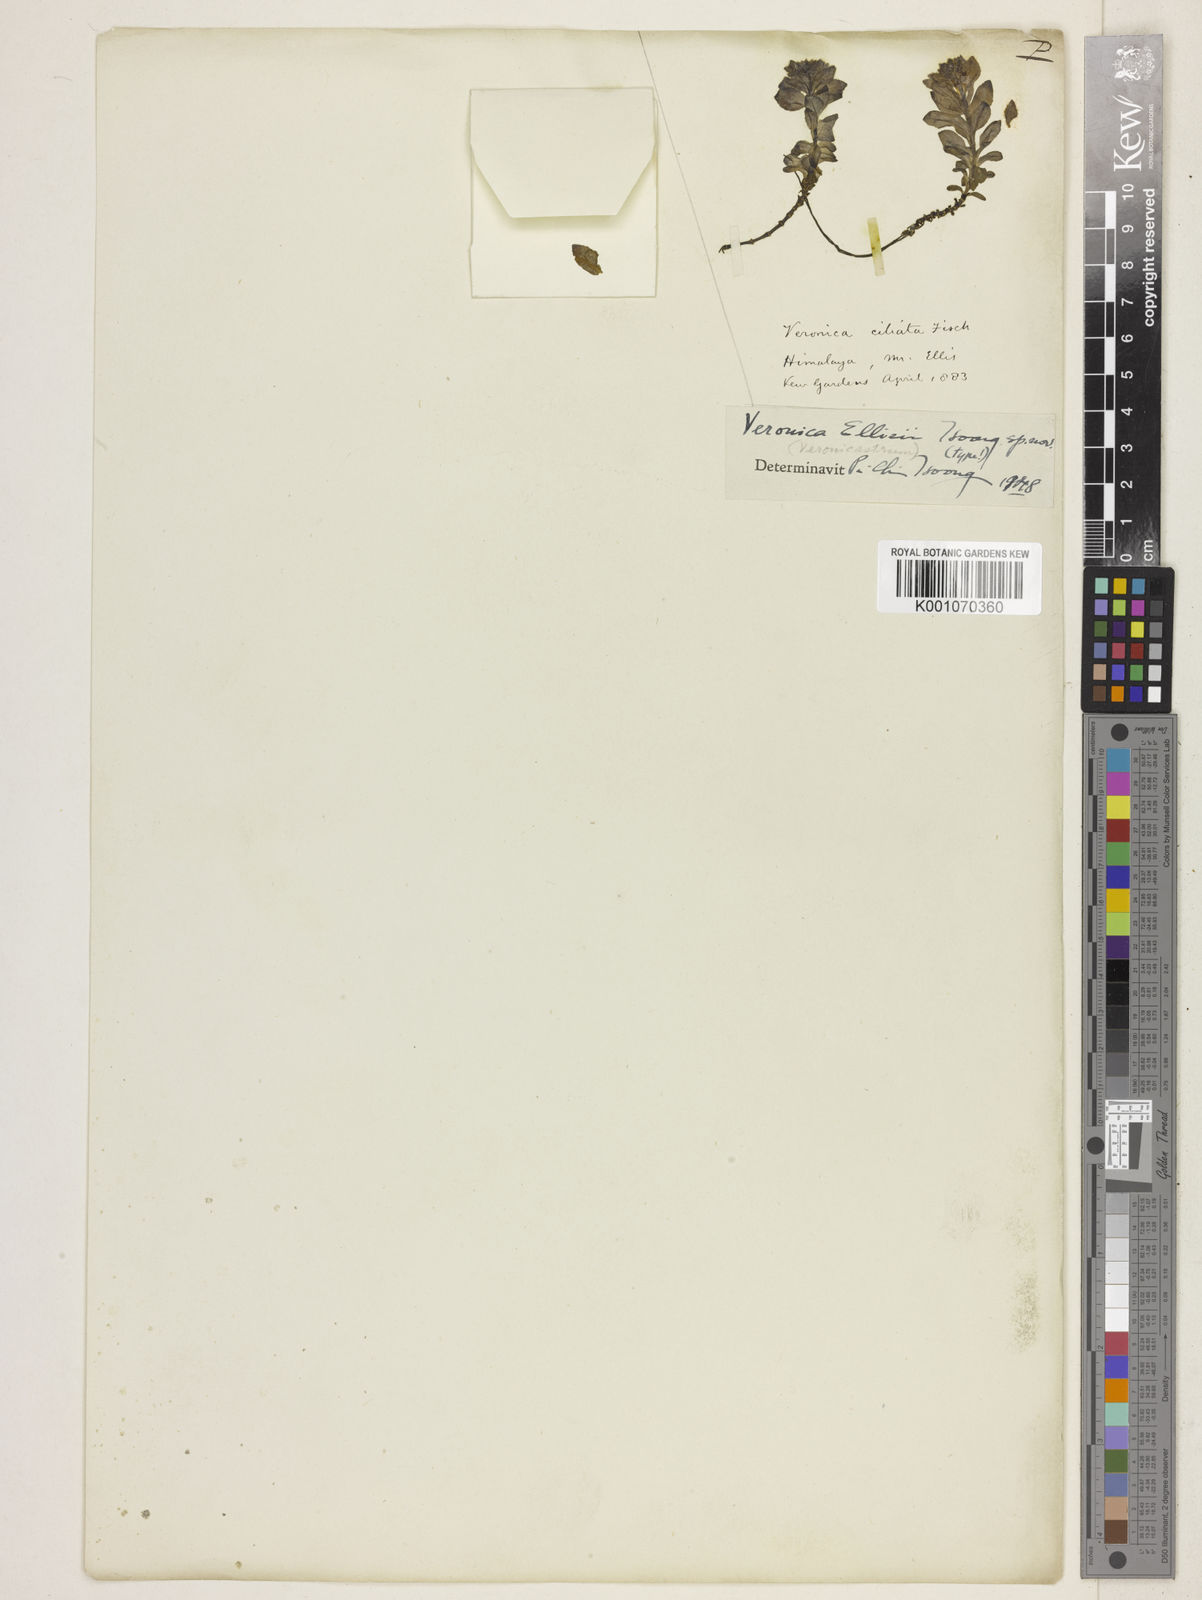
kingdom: Plantae
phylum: Tracheophyta
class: Magnoliopsida
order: Lamiales
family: Plantaginaceae
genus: Veronica
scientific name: Veronica
